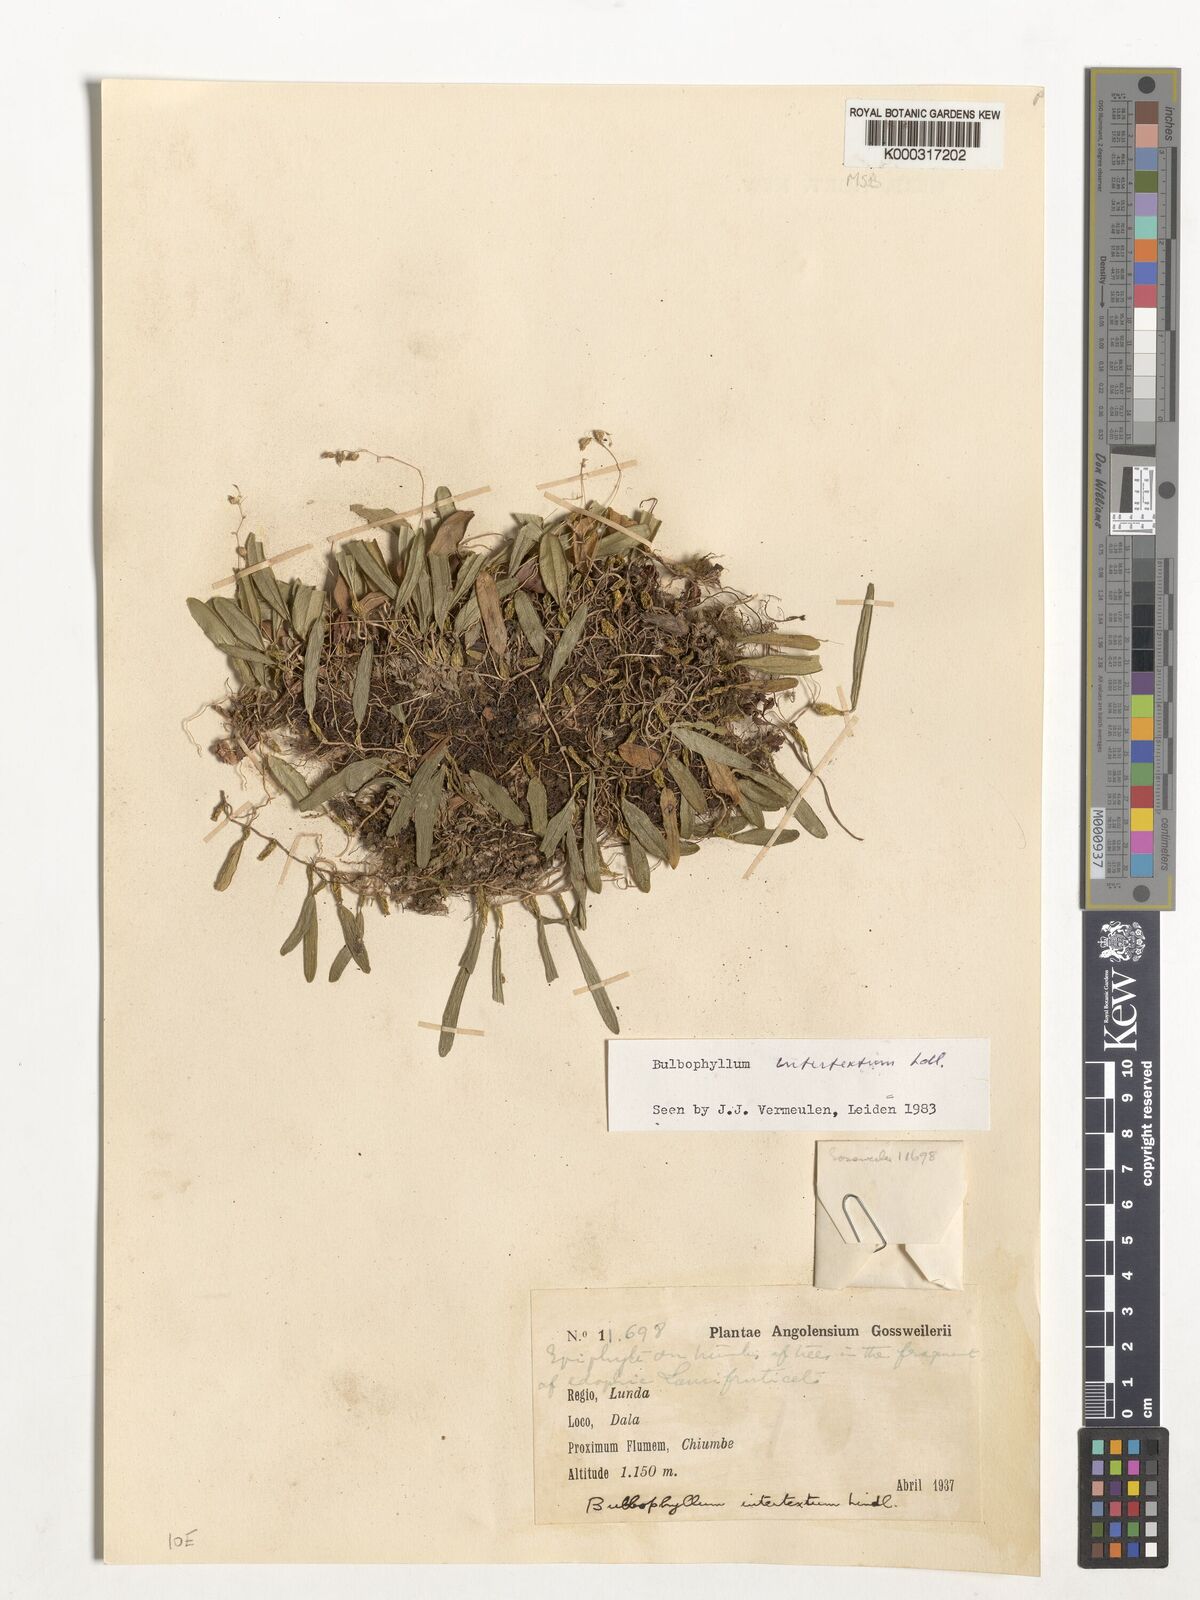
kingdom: Plantae
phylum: Tracheophyta
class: Liliopsida
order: Asparagales
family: Orchidaceae
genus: Bulbophyllum
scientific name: Bulbophyllum intertextum
